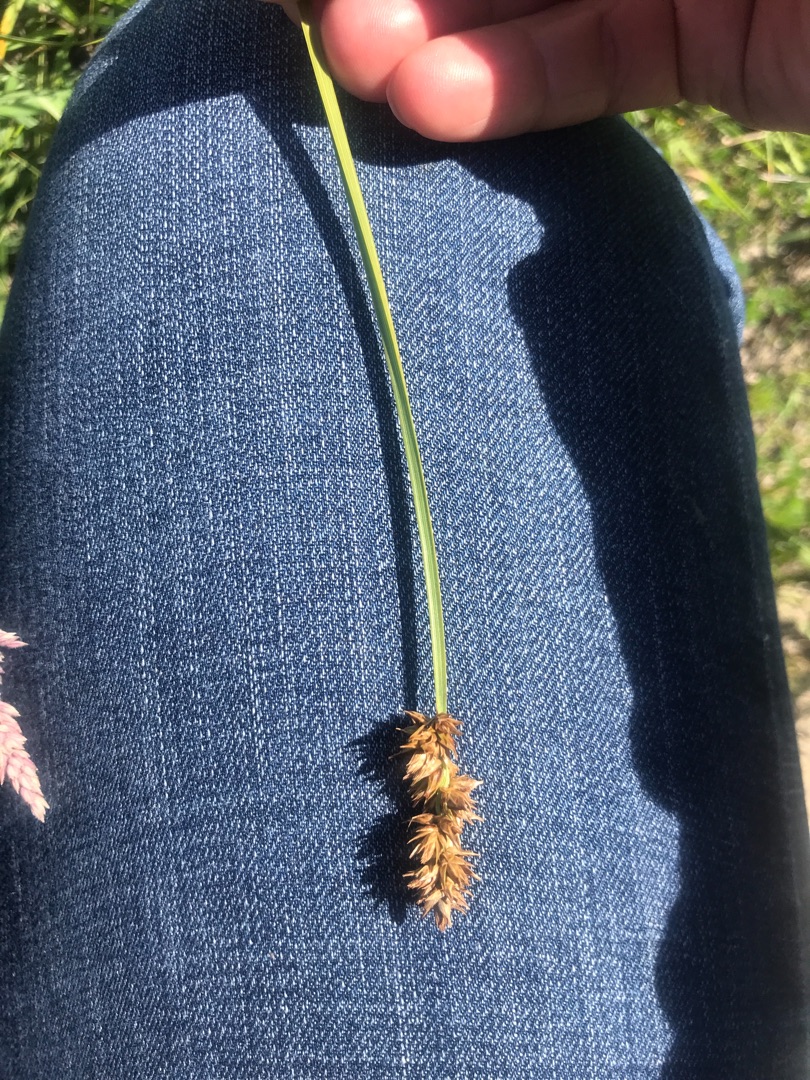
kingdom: Plantae
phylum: Tracheophyta
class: Liliopsida
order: Poales
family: Cyperaceae
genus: Carex
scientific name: Carex otrubae
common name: Sylt-star
